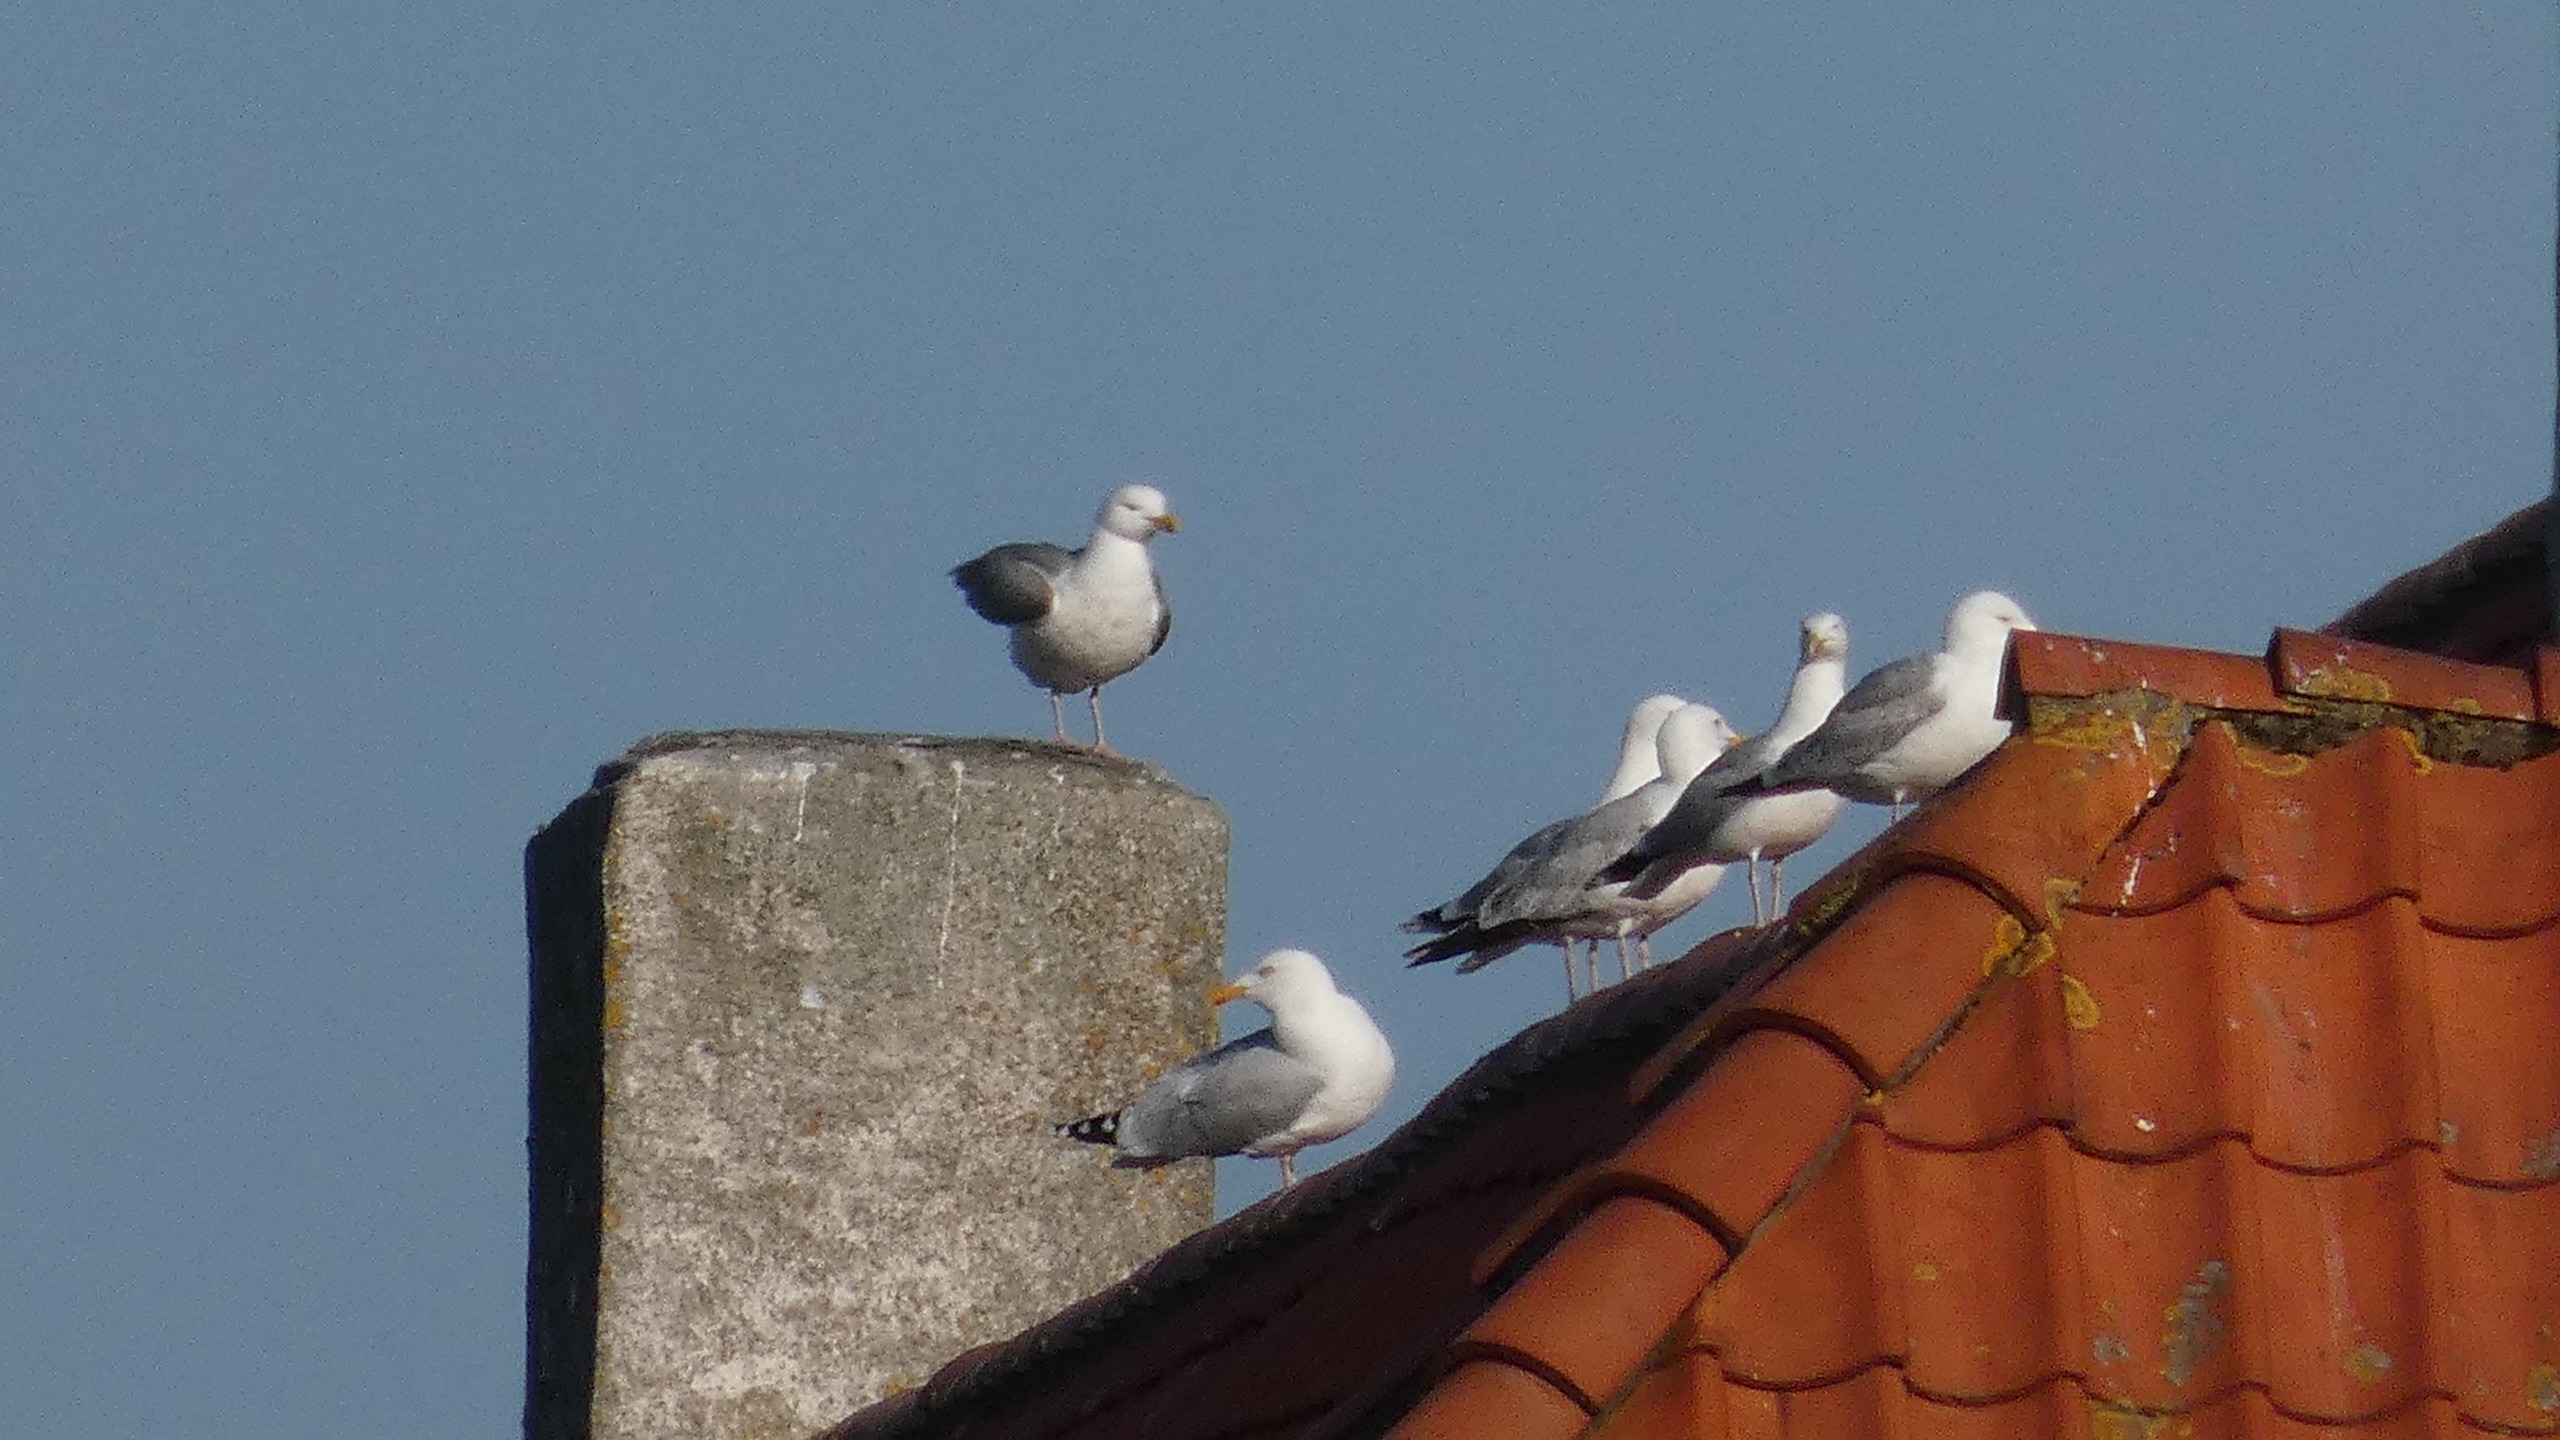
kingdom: Animalia
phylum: Chordata
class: Aves
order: Charadriiformes
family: Laridae
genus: Larus
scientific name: Larus argentatus
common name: Sølvmåge
